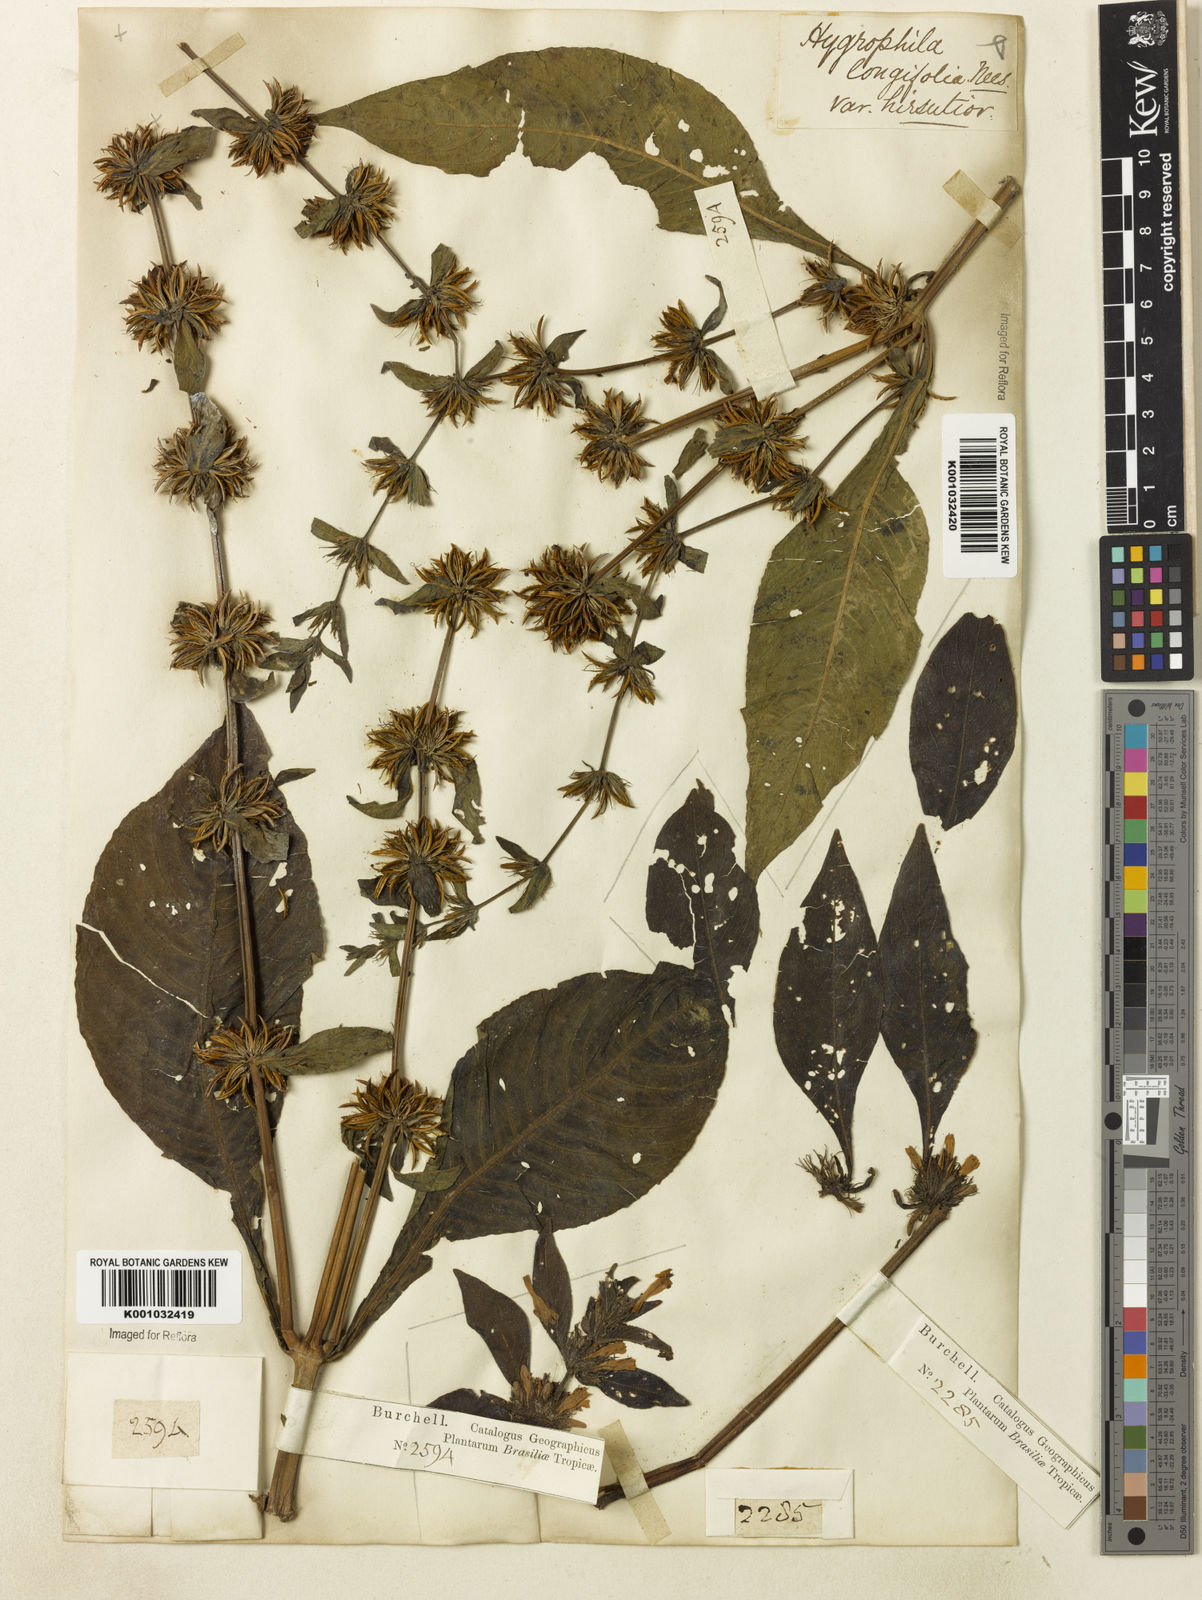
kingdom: Plantae
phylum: Tracheophyta
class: Magnoliopsida
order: Lamiales
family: Acanthaceae
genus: Hygrophila
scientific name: Hygrophila costata
